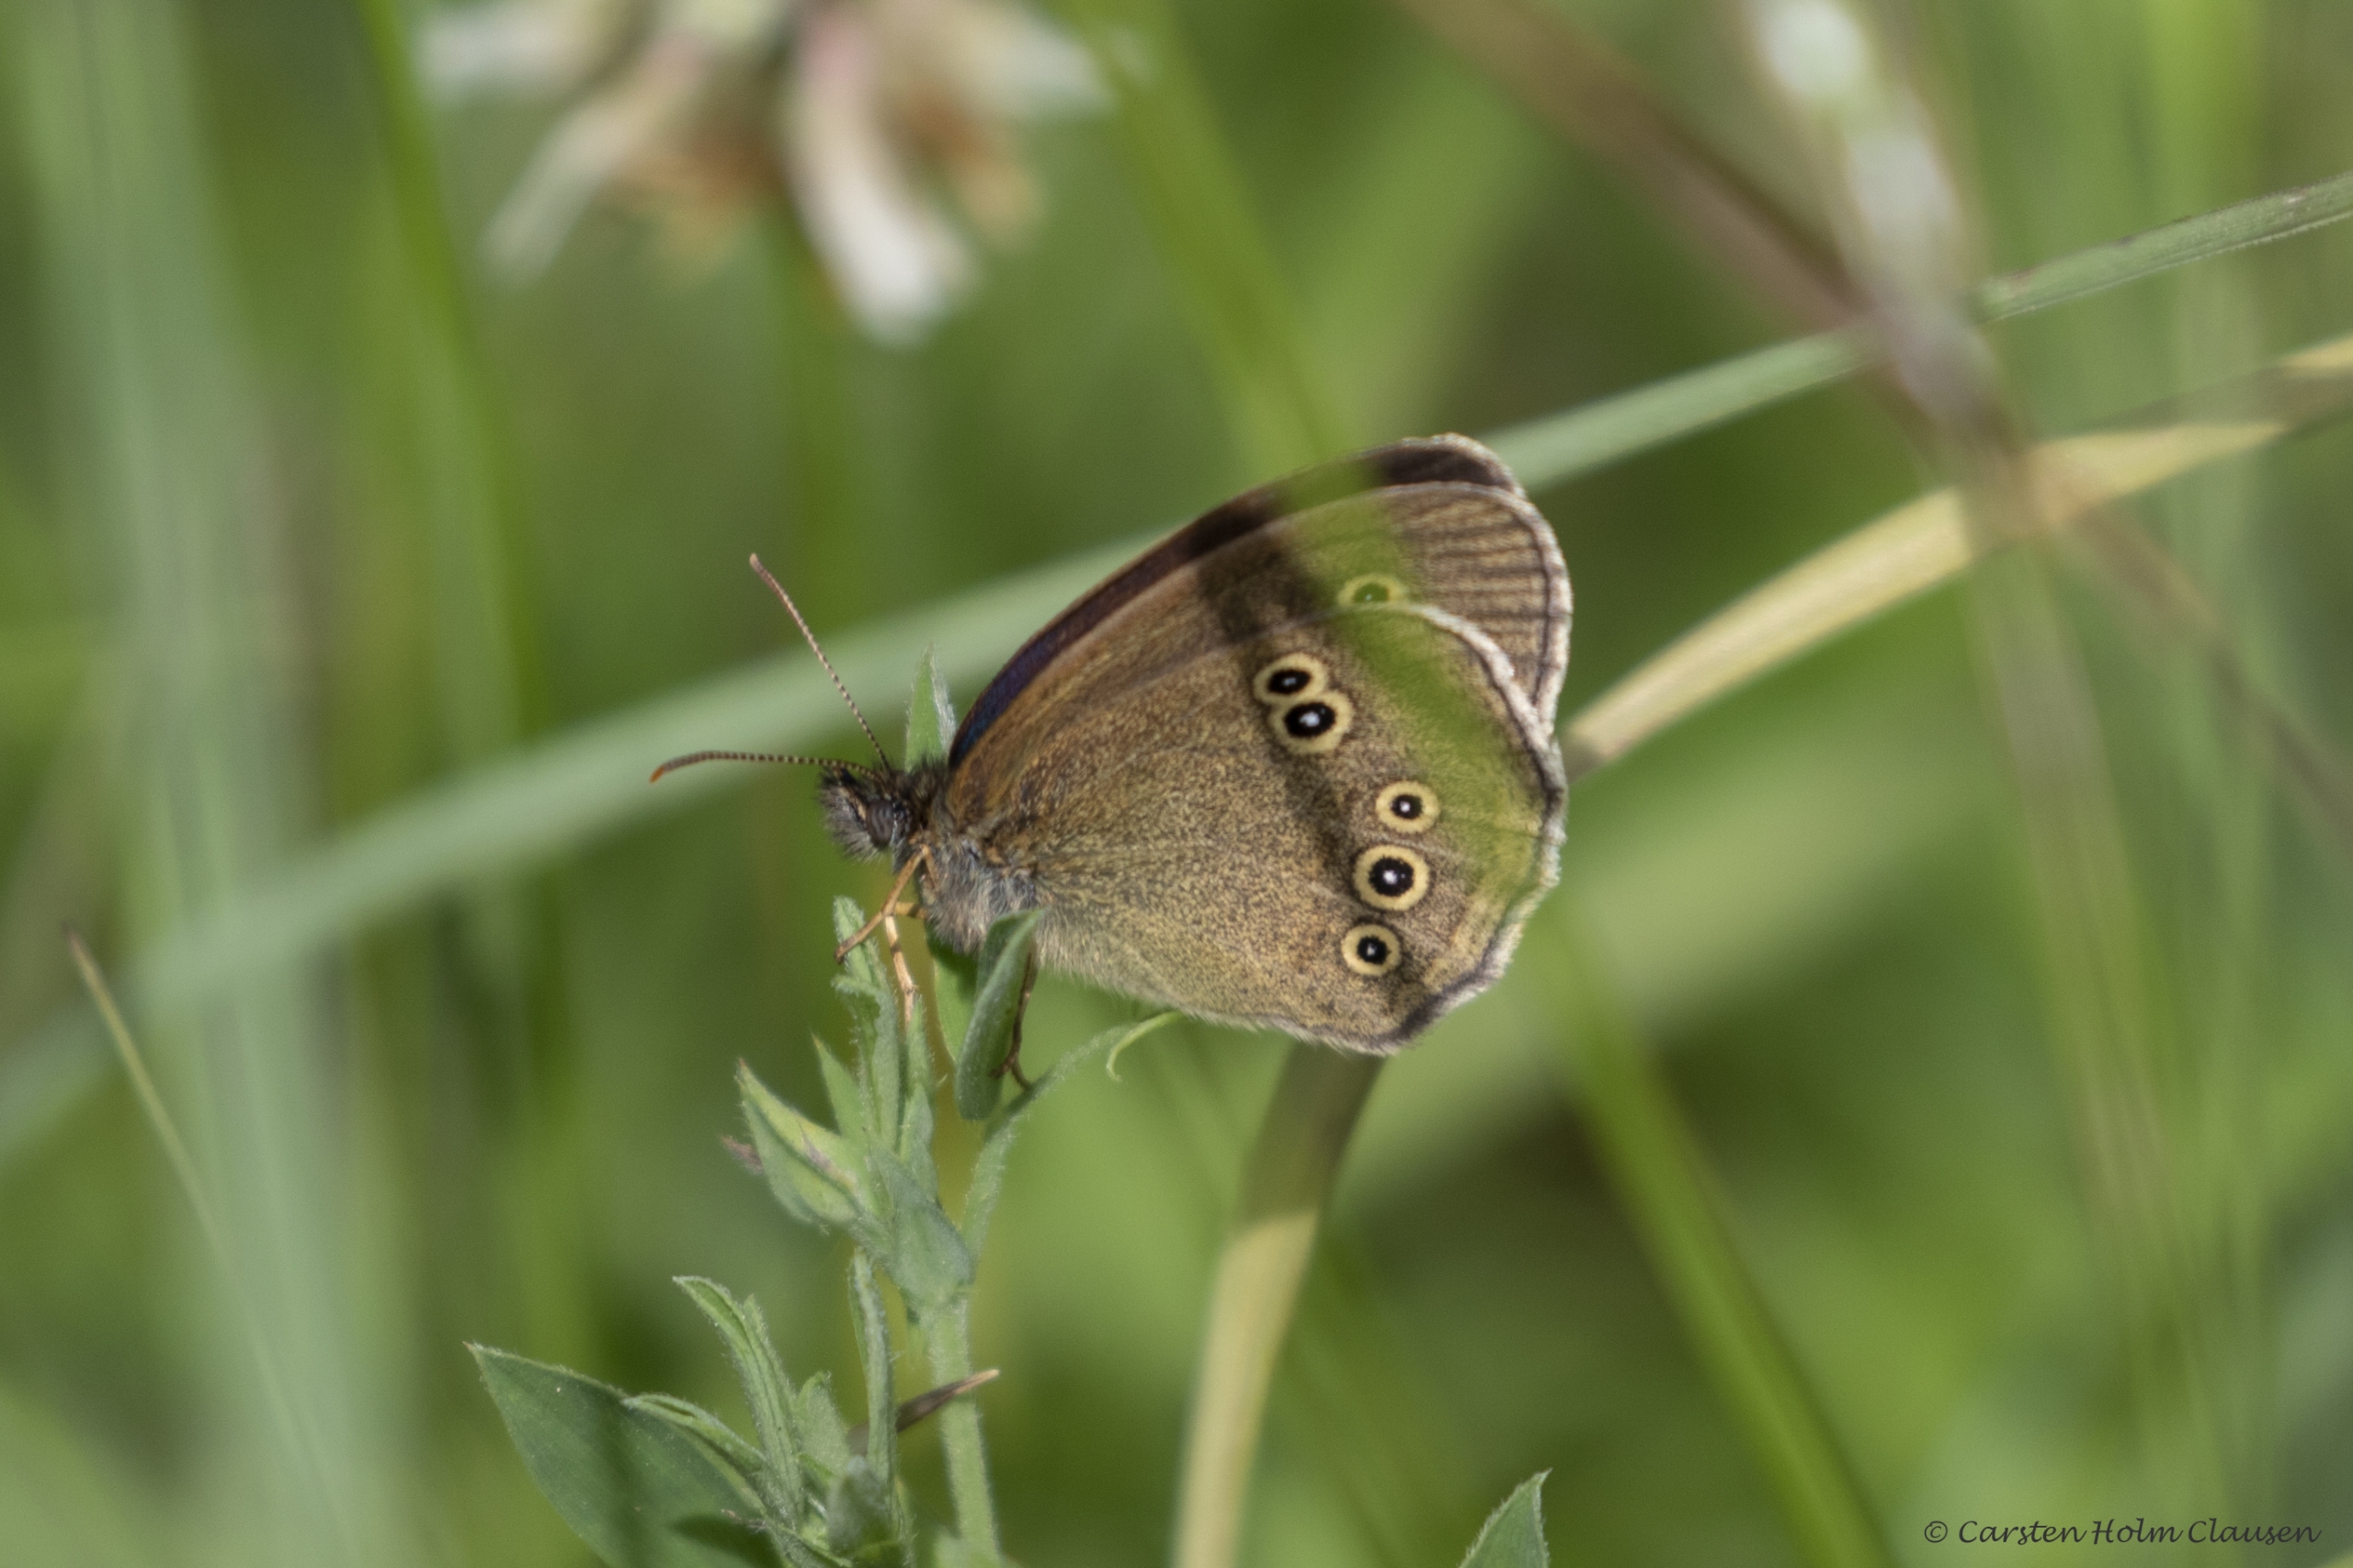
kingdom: Animalia
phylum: Arthropoda
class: Insecta
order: Lepidoptera
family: Nymphalidae
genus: Aphantopus
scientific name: Aphantopus hyperantus
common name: Engrandøje
